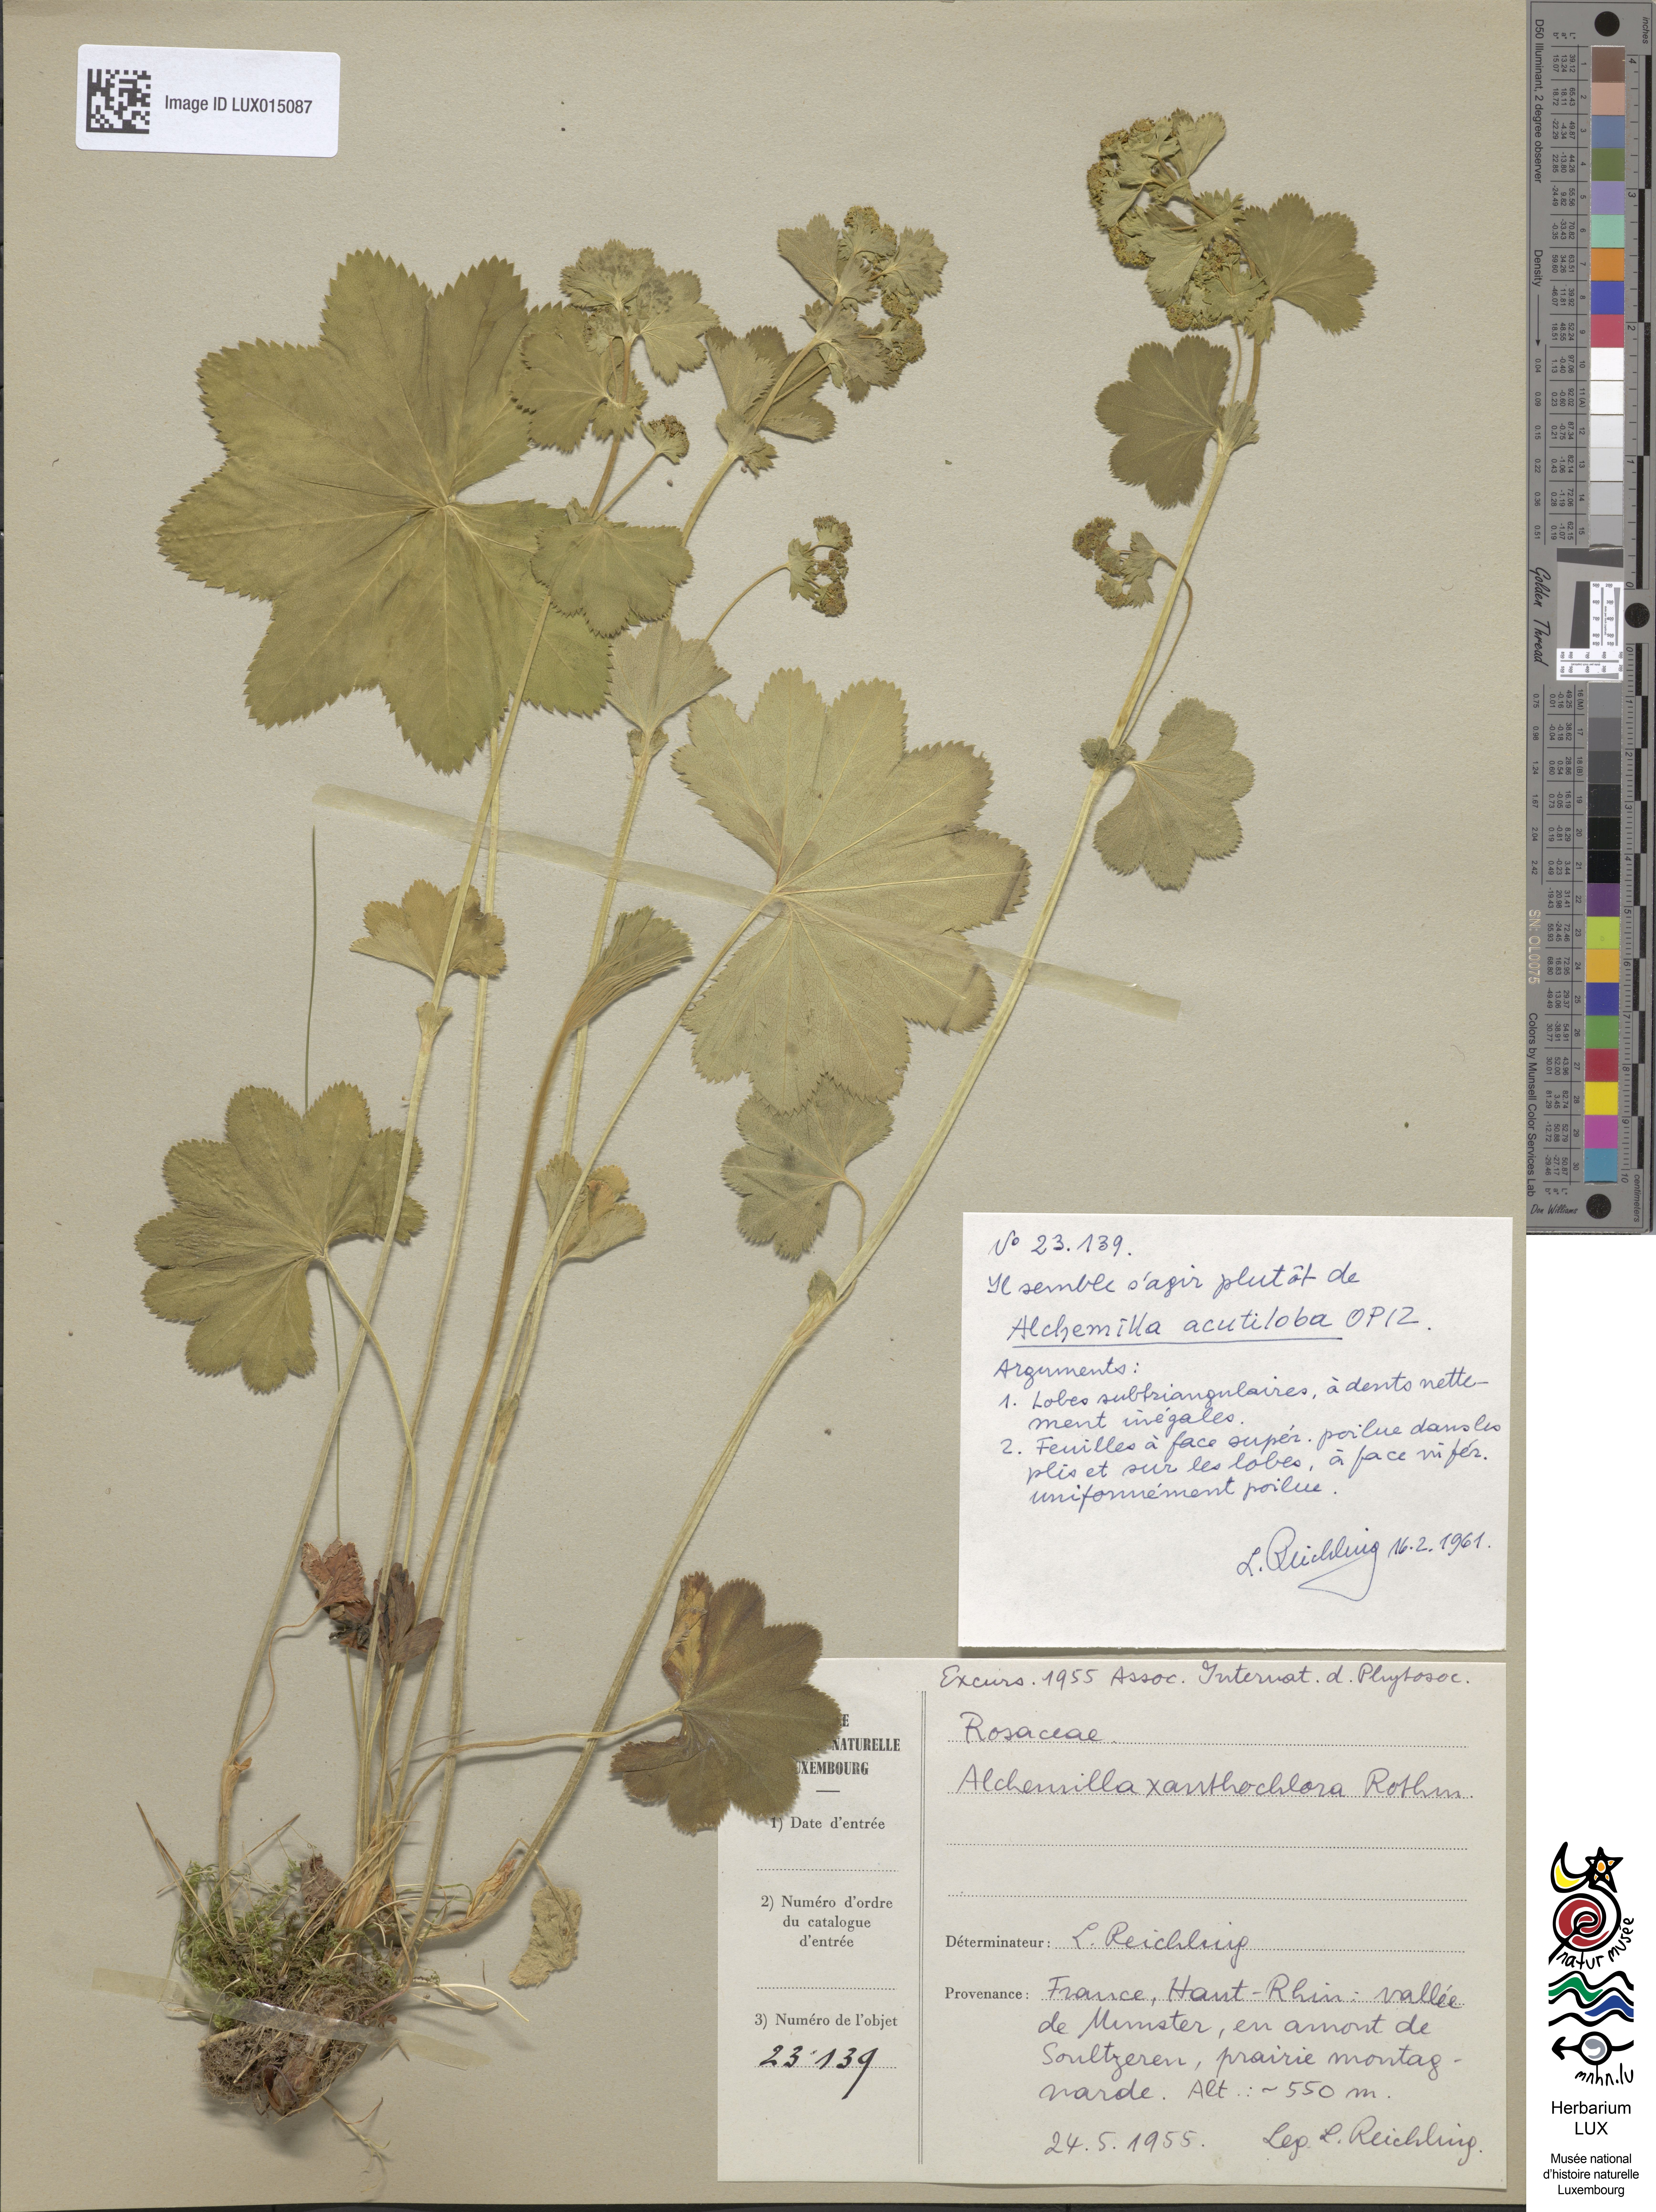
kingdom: Plantae
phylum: Tracheophyta
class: Magnoliopsida
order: Rosales
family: Rosaceae
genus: Alchemilla
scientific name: Alchemilla vulgaris
